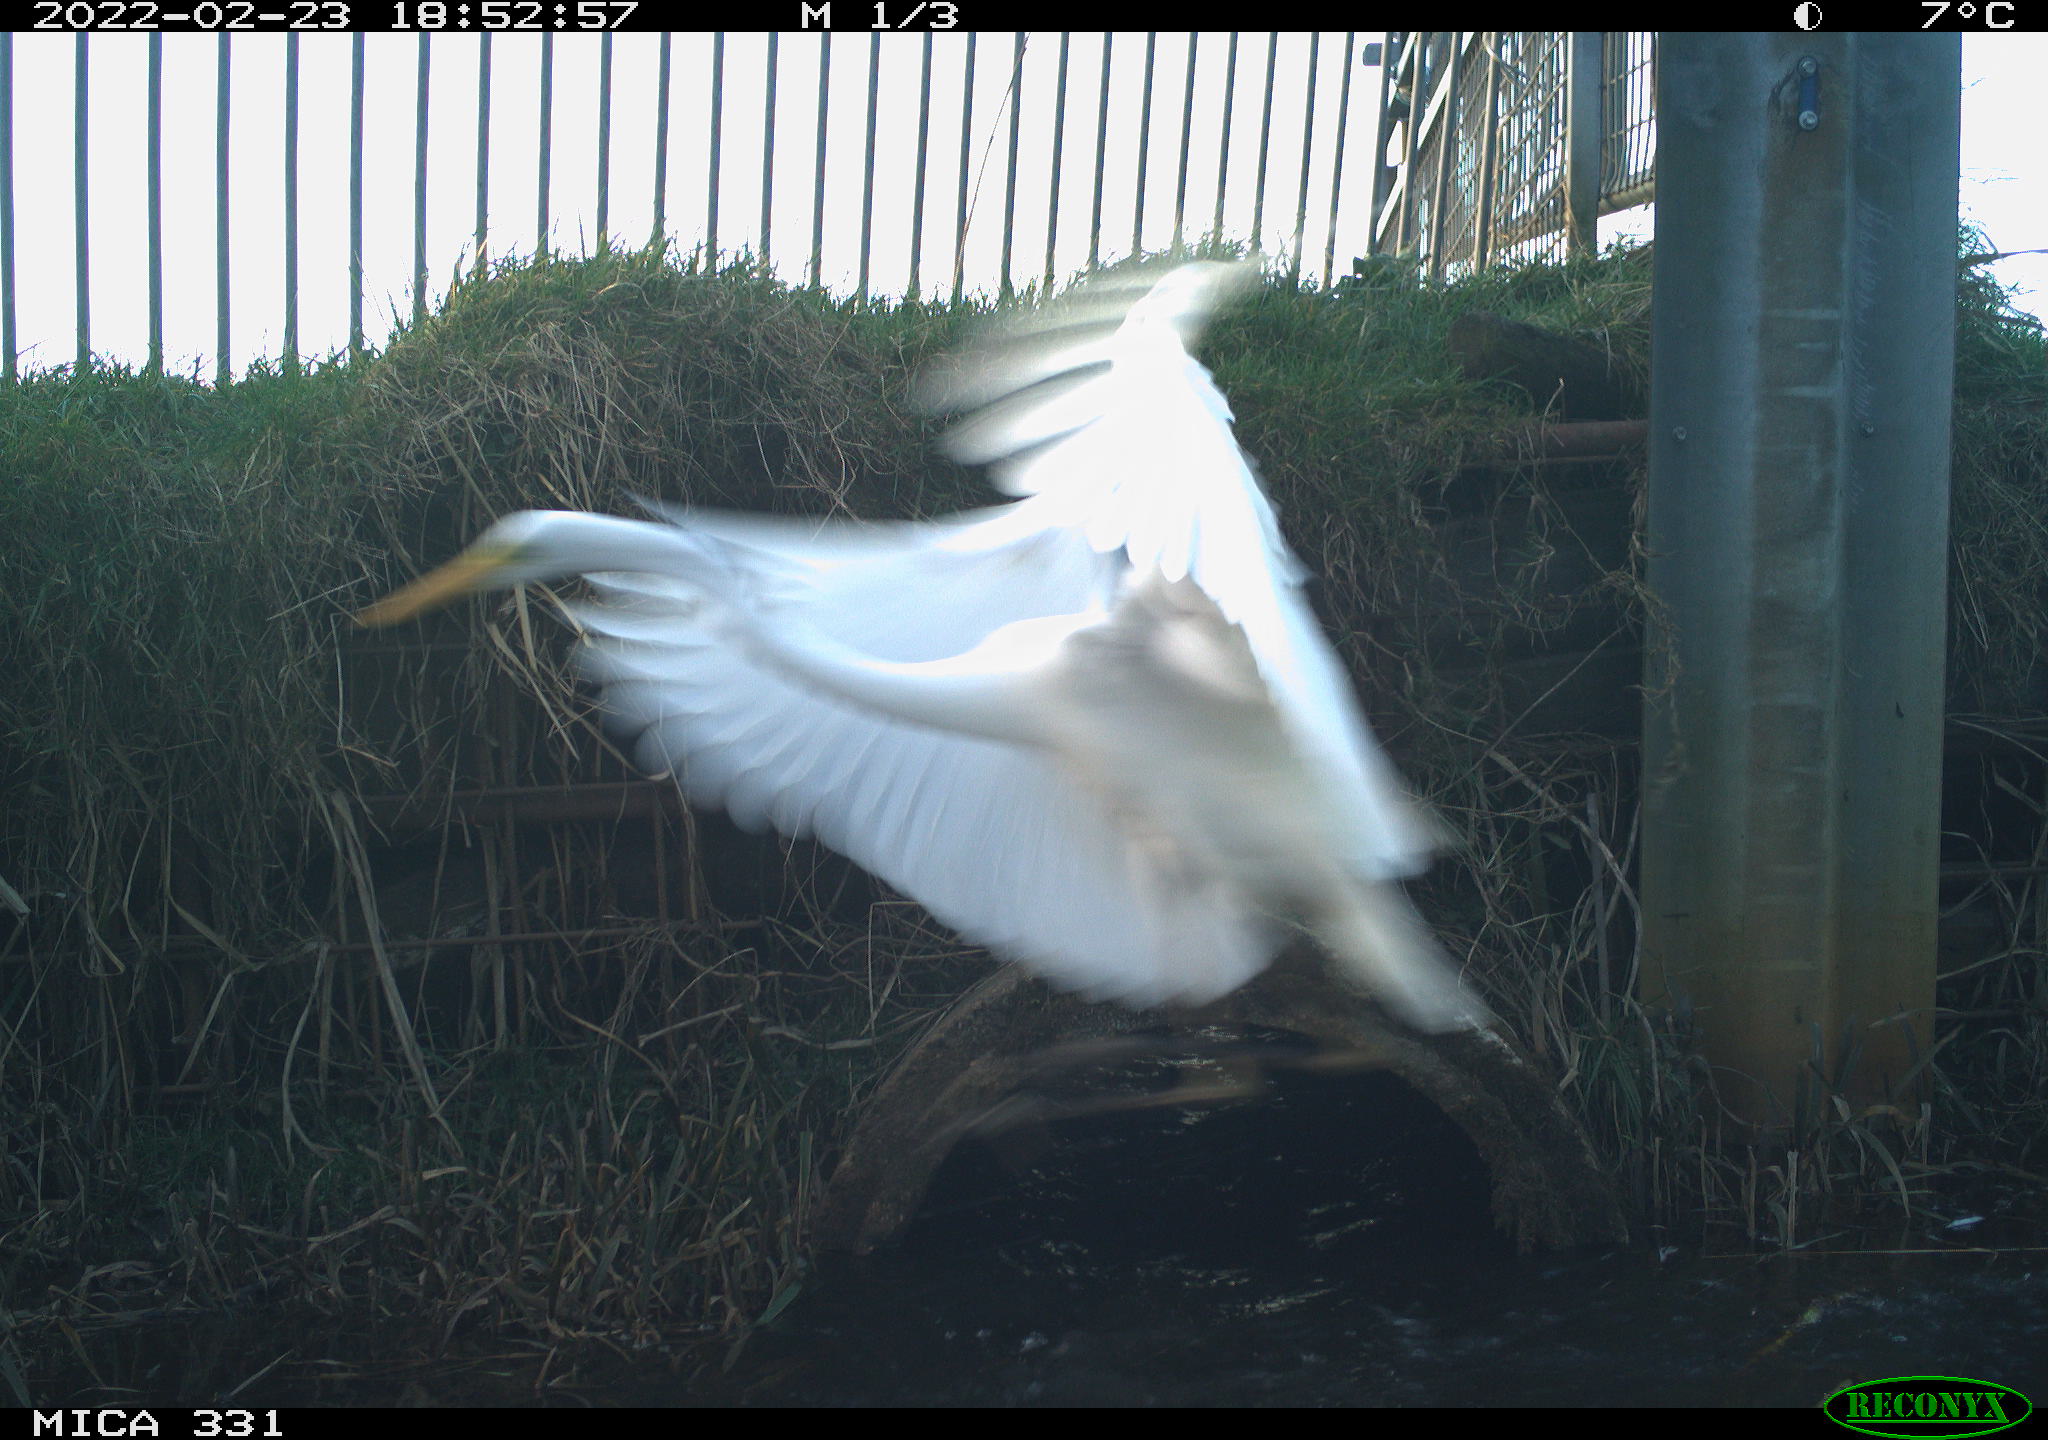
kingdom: Animalia
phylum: Chordata
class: Aves
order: Pelecaniformes
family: Ardeidae
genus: Ardea
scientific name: Ardea alba
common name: Great egret
